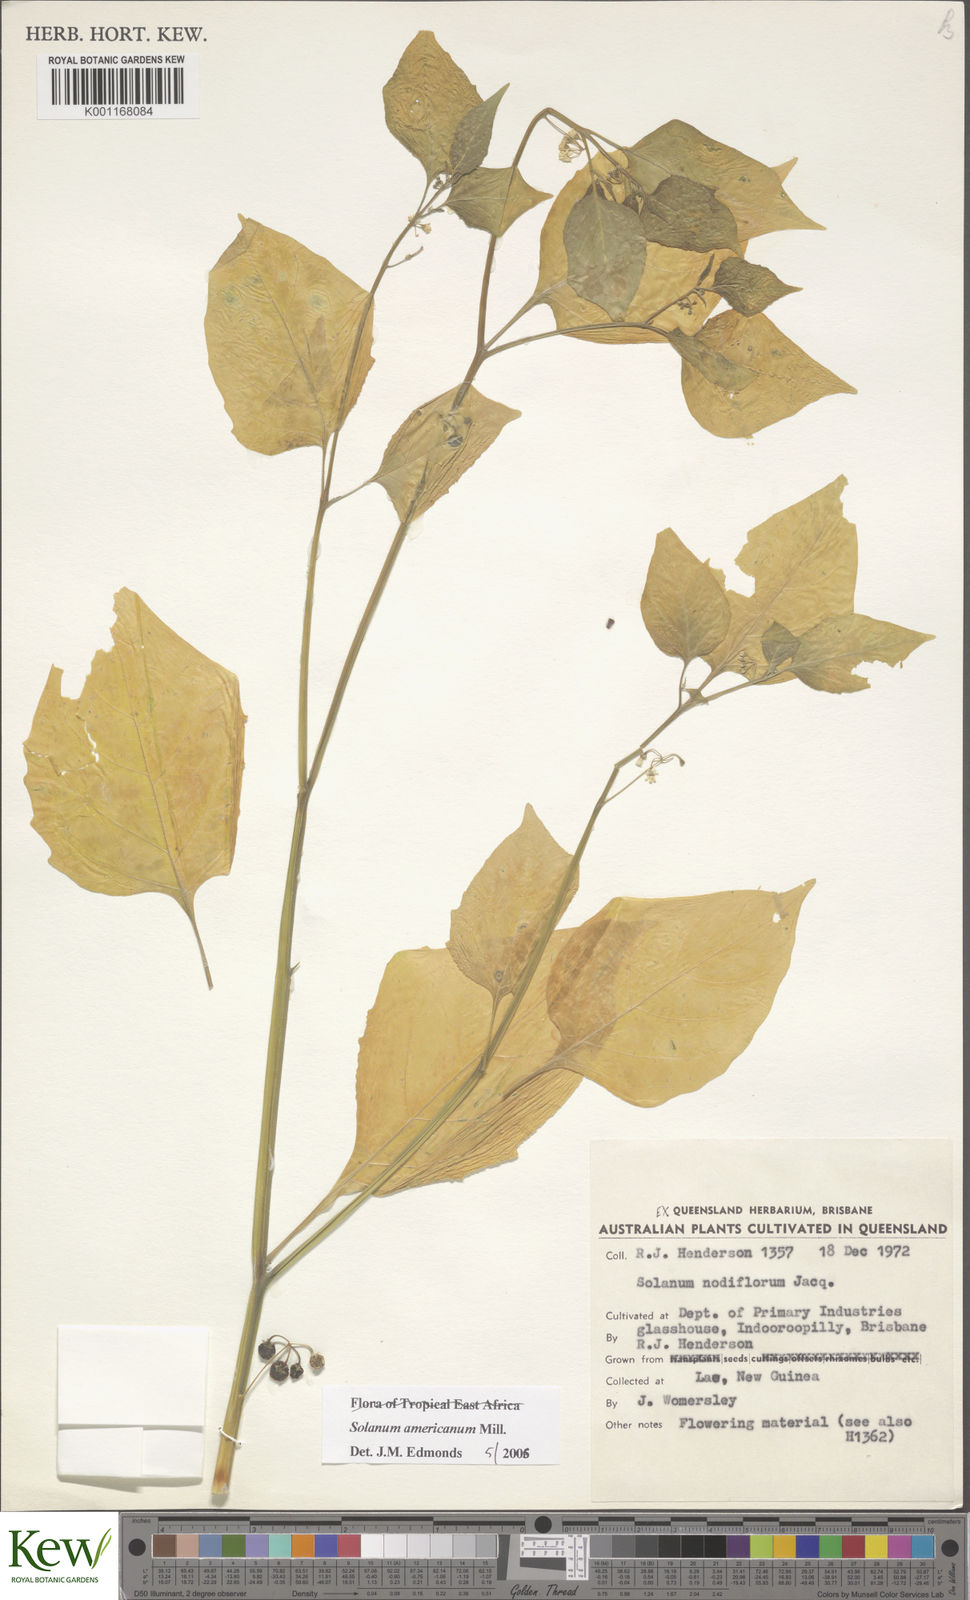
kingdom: Plantae
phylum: Tracheophyta
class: Magnoliopsida
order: Solanales
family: Solanaceae
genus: Solanum
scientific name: Solanum americanum
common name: American black nightshade
